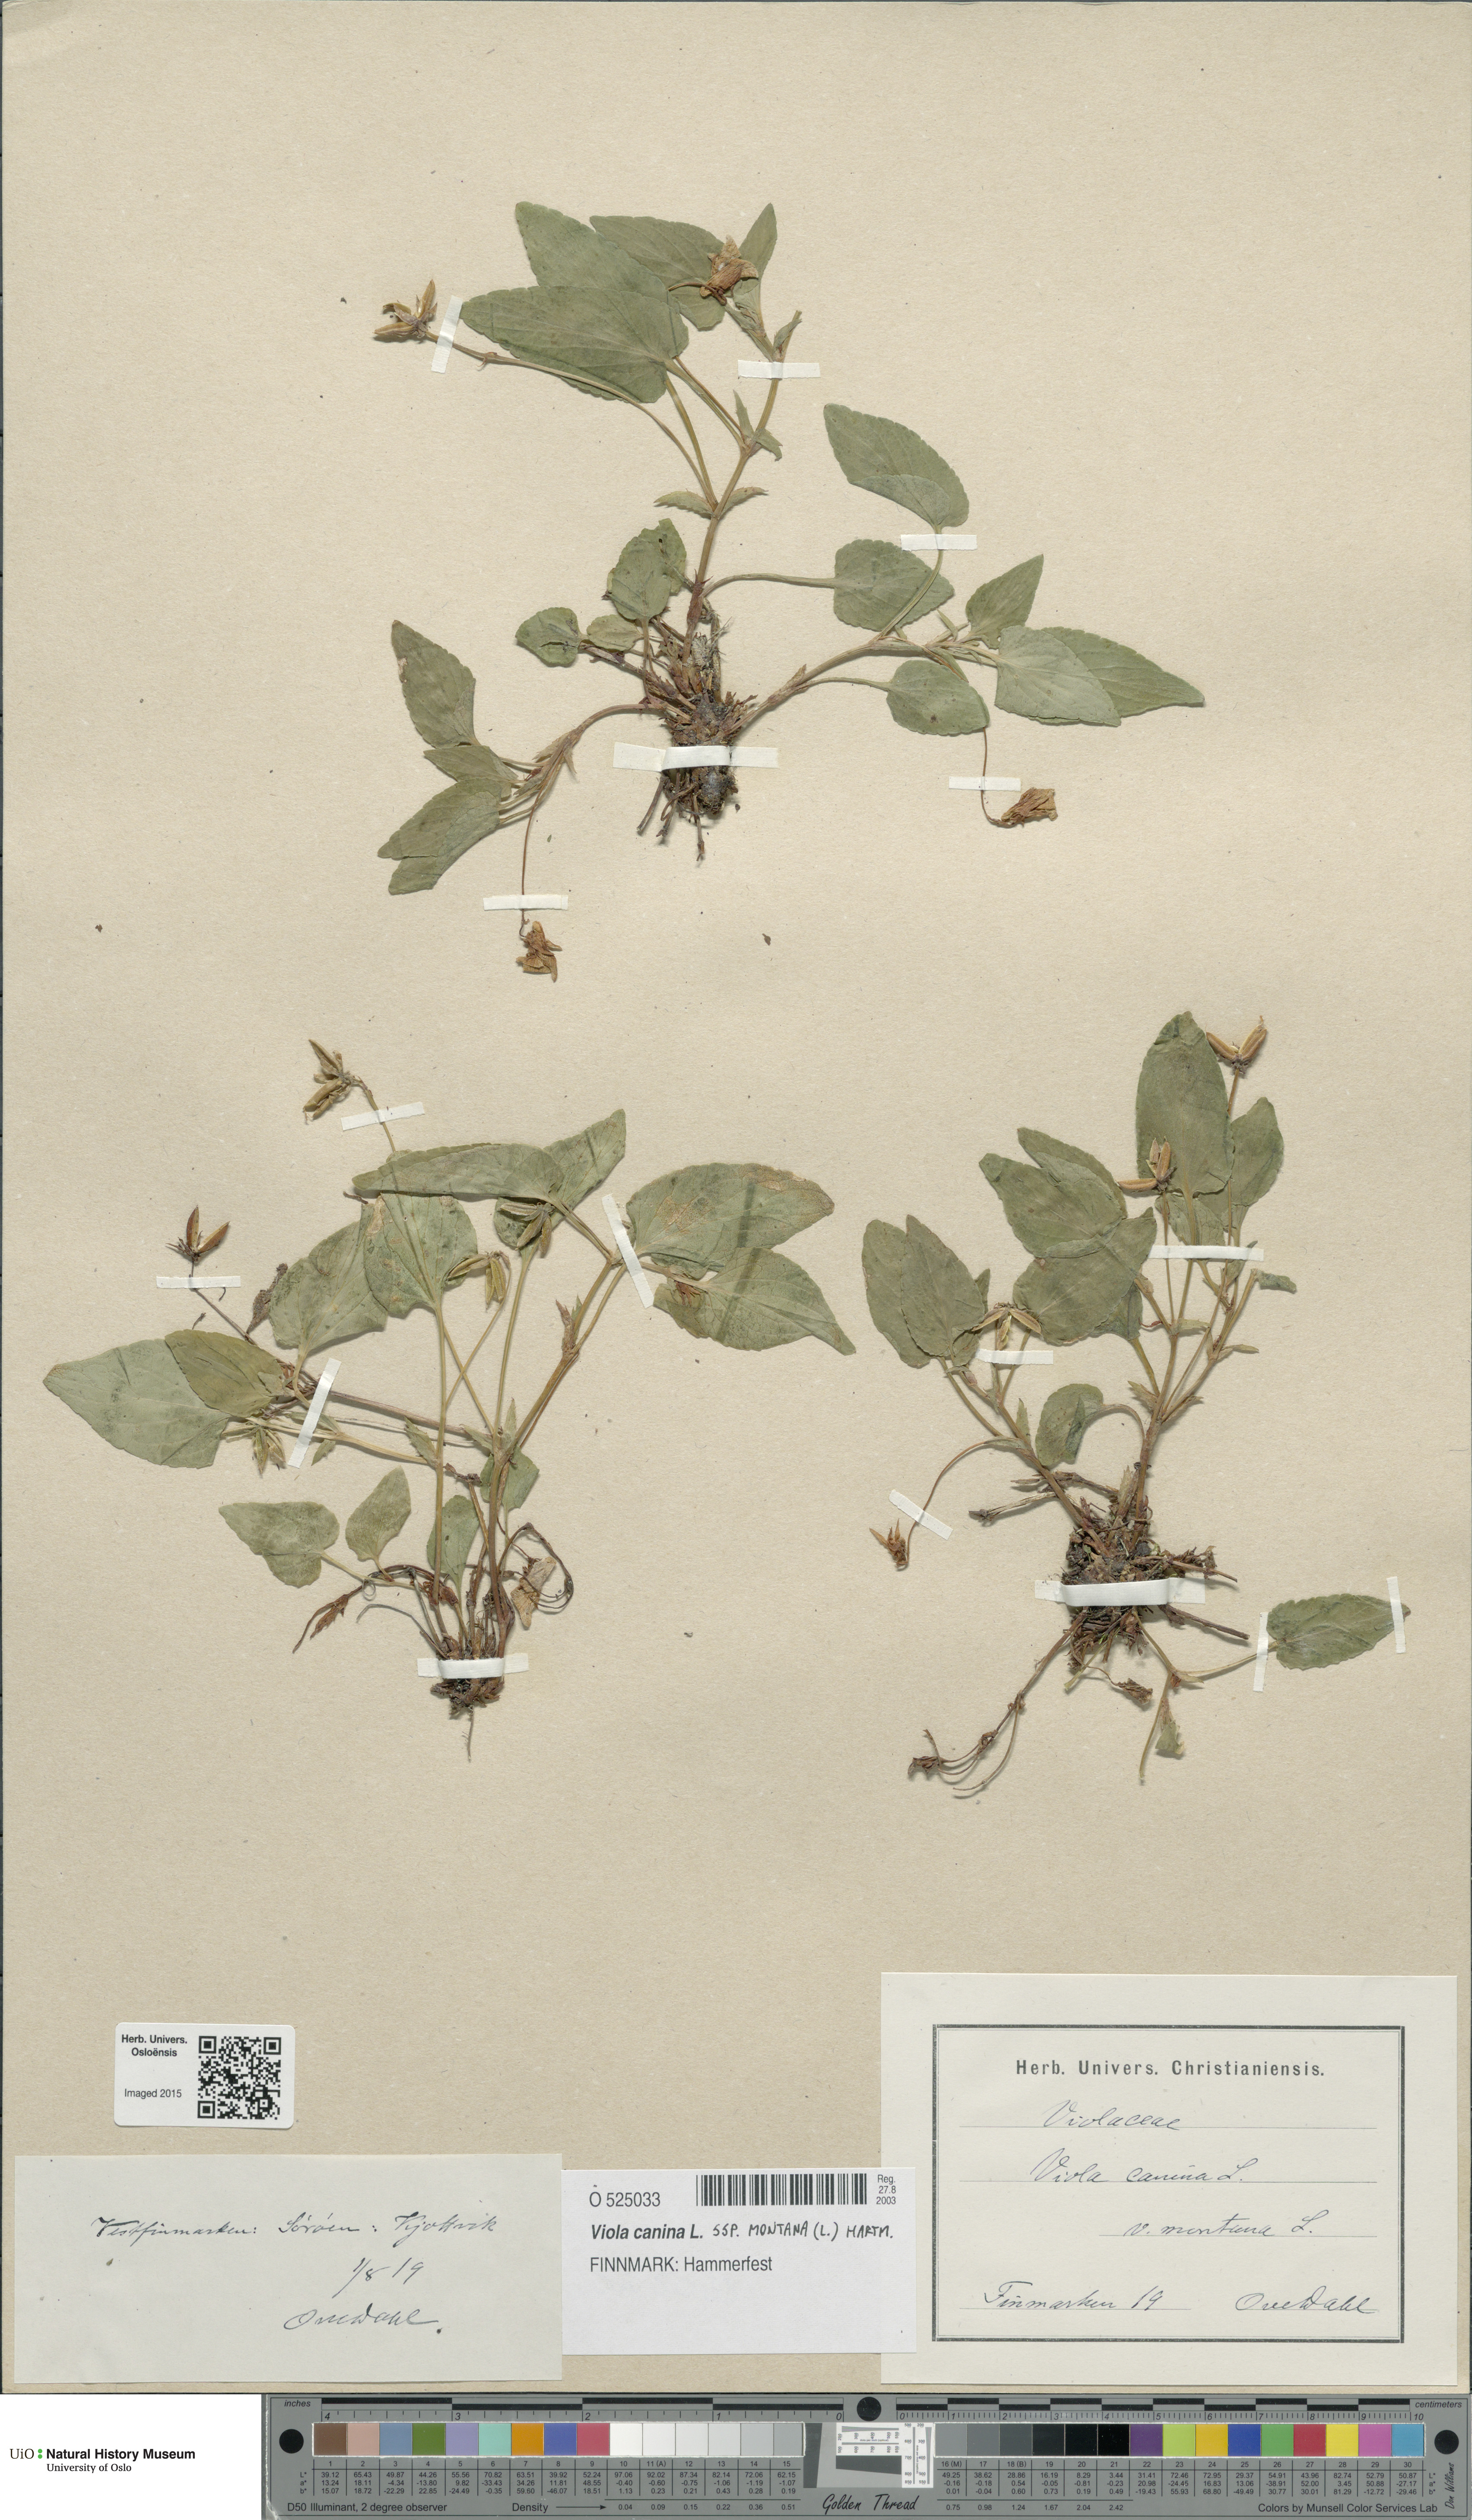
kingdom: Plantae
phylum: Tracheophyta
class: Magnoliopsida
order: Malpighiales
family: Violaceae
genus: Viola
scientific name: Viola ruppii
